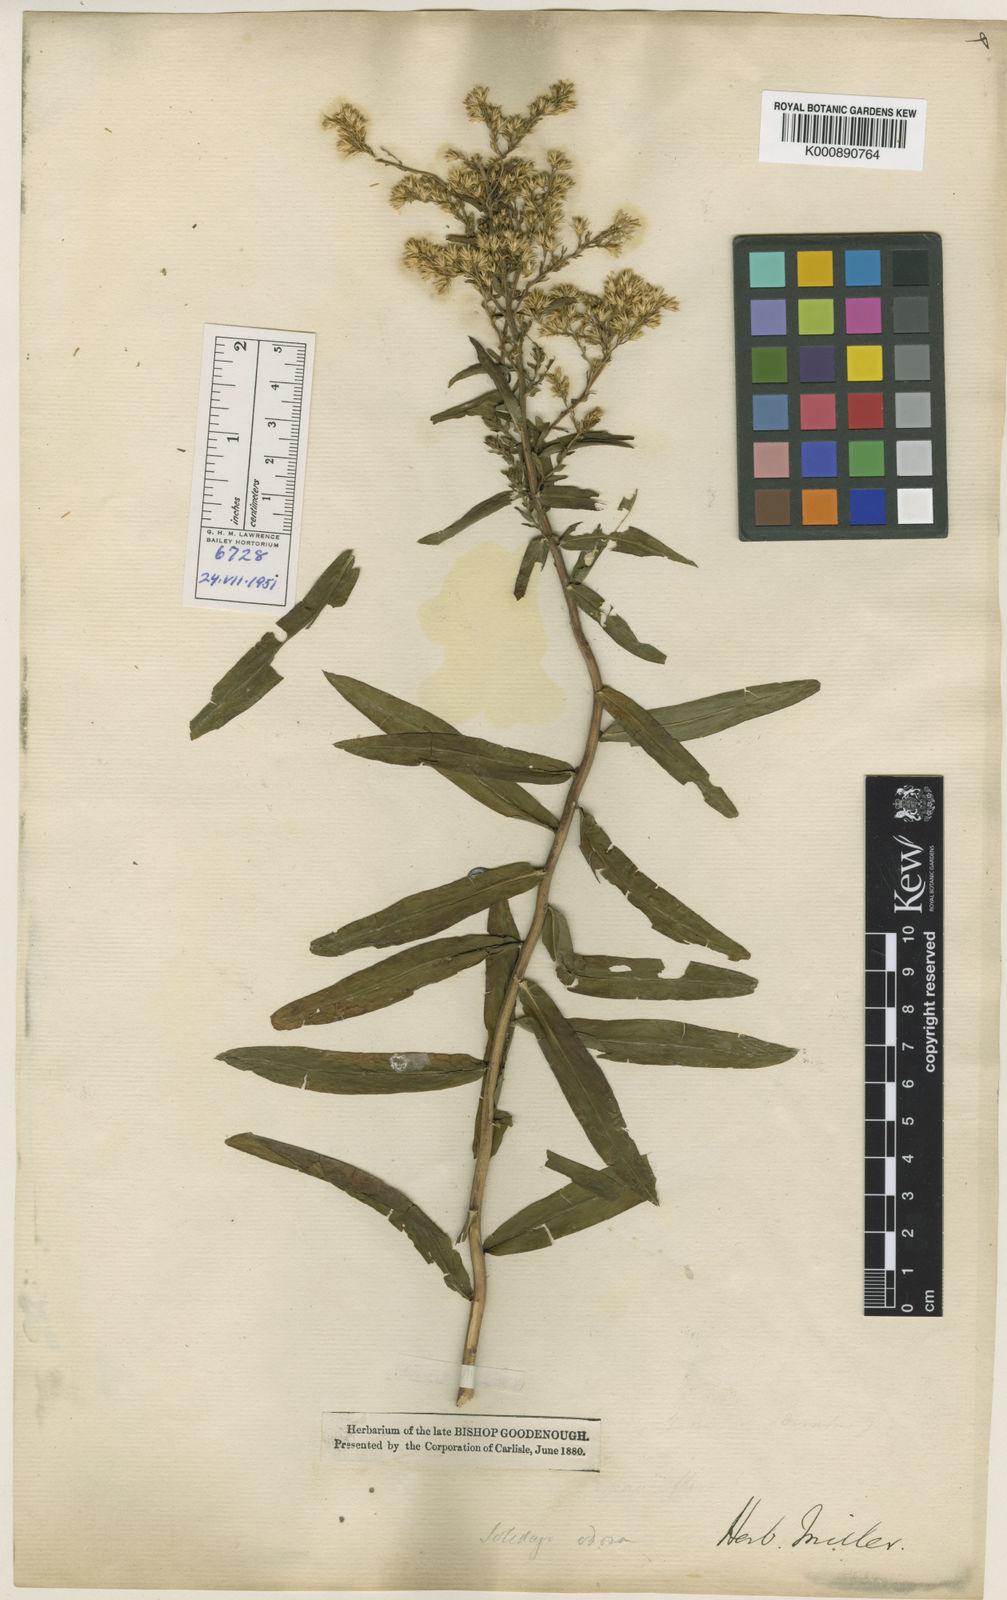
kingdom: Plantae
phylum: Tracheophyta
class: Magnoliopsida
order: Asterales
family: Asteraceae
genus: Solidago
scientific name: Solidago odora
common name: Anise-scented goldenrod
